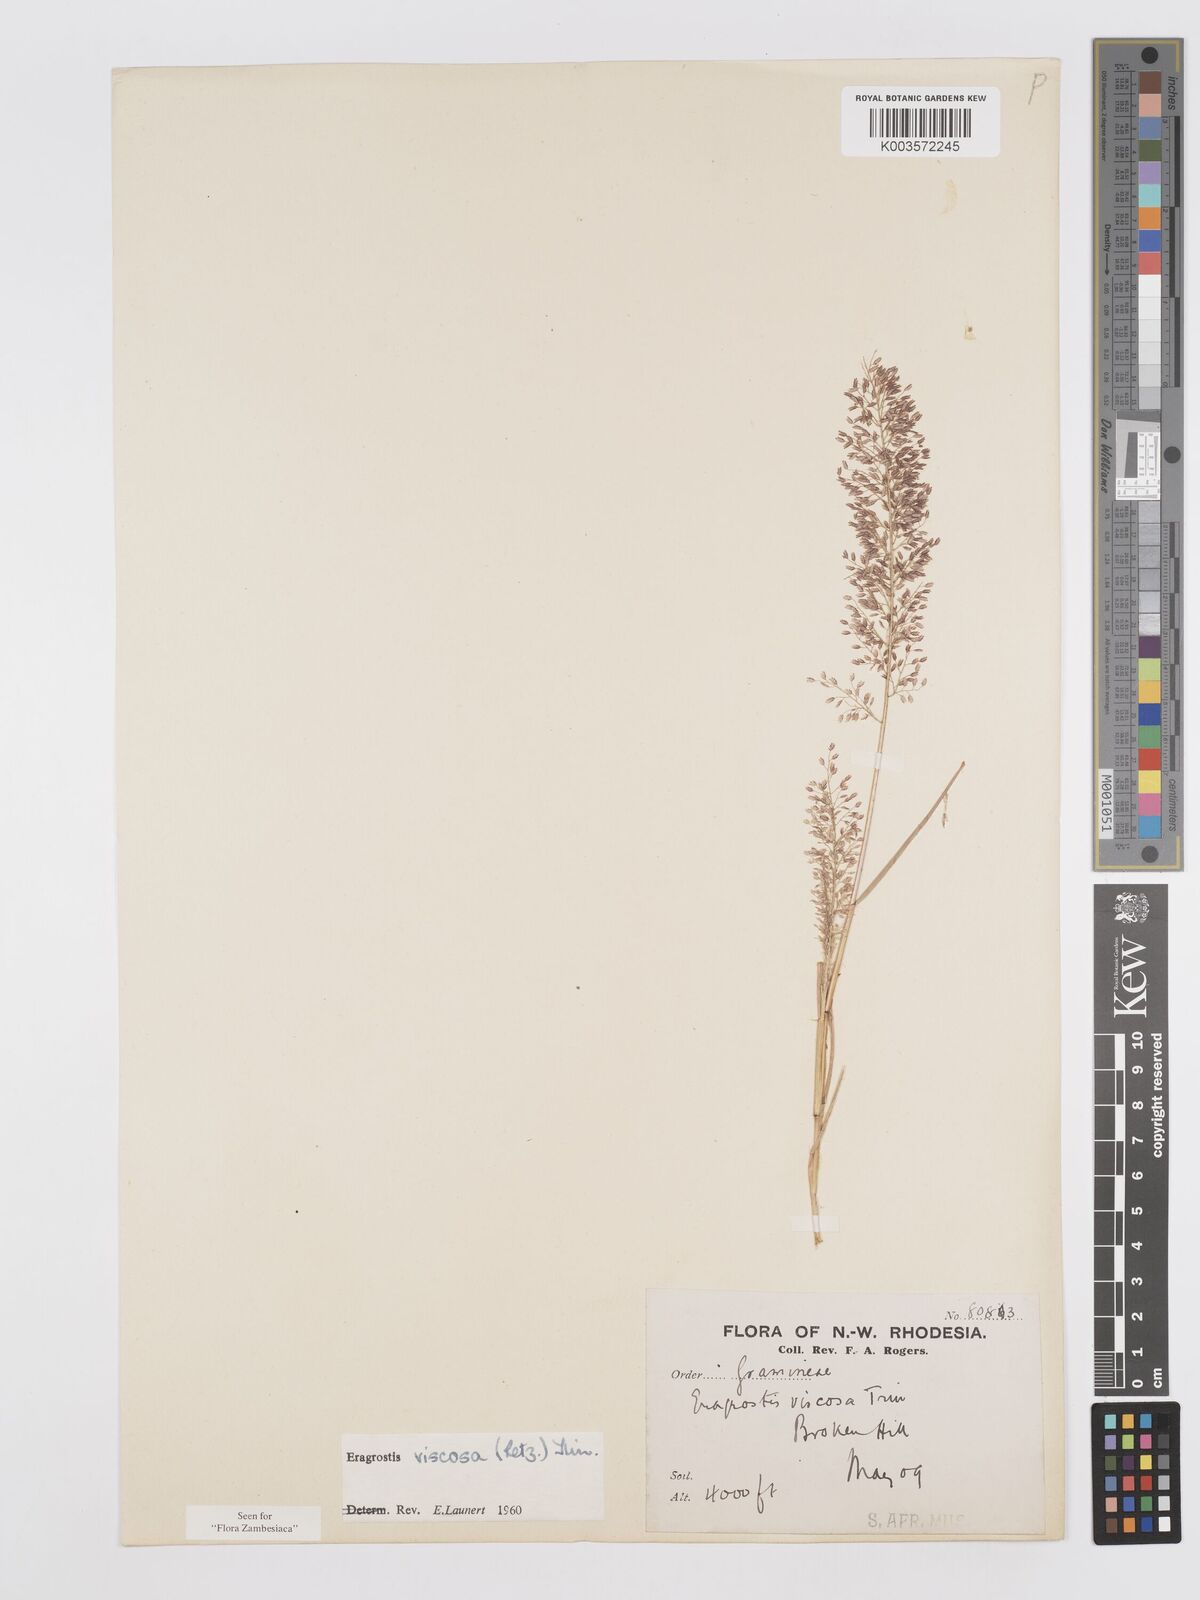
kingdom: Plantae
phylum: Tracheophyta
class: Liliopsida
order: Poales
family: Poaceae
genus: Eragrostis
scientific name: Eragrostis
